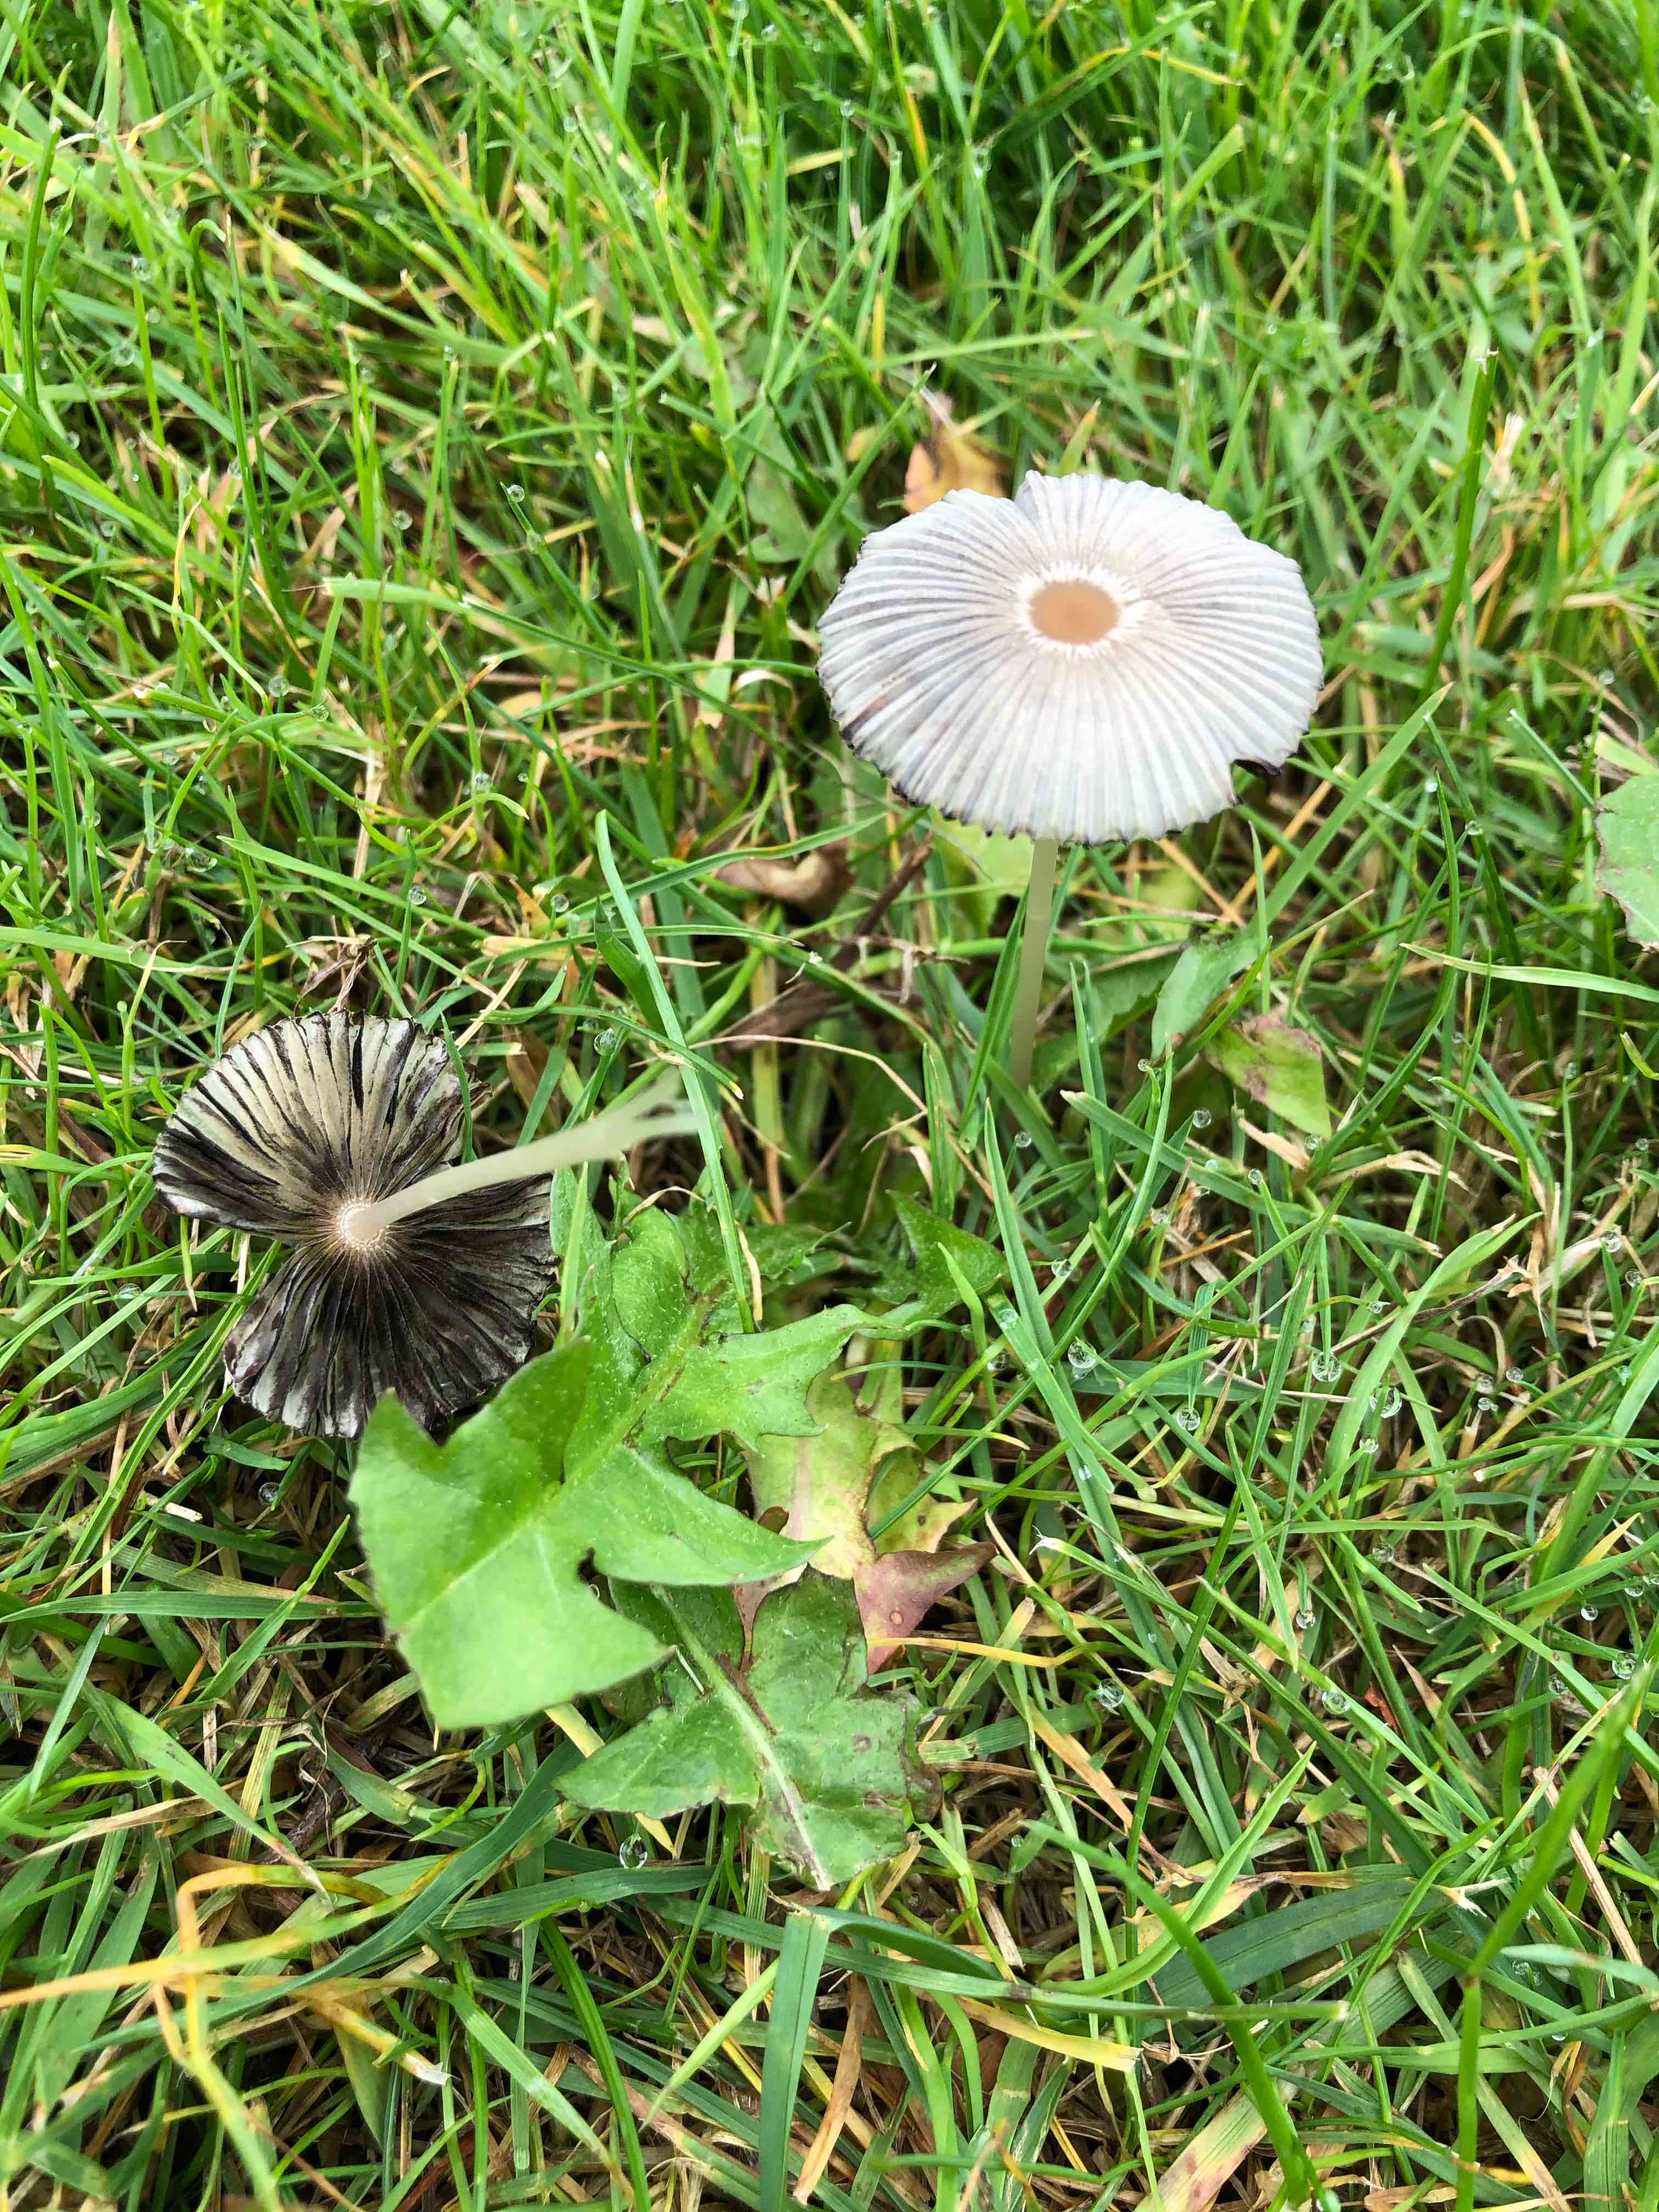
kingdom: Fungi
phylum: Basidiomycota
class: Agaricomycetes
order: Agaricales
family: Psathyrellaceae
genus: Parasola
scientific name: Parasola
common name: hjulhat
